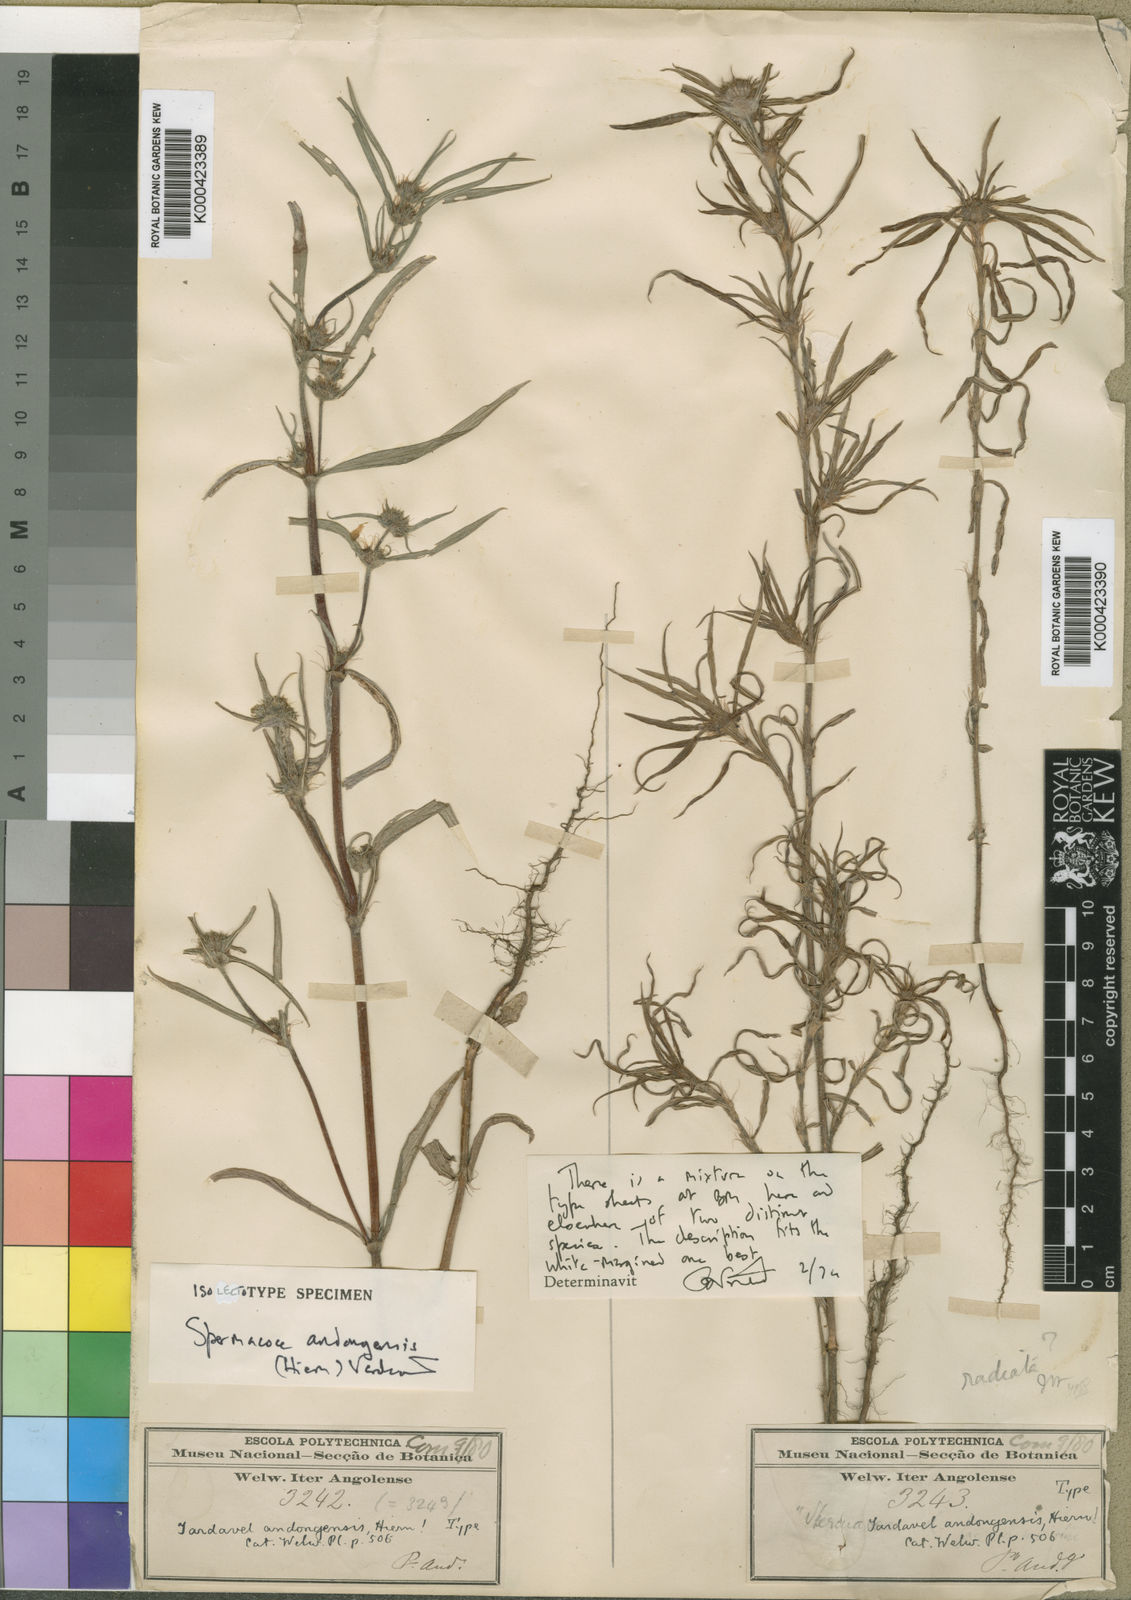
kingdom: Plantae
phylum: Tracheophyta
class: Magnoliopsida
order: Gentianales
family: Rubiaceae
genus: Spermacoce
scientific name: Spermacoce radiata
